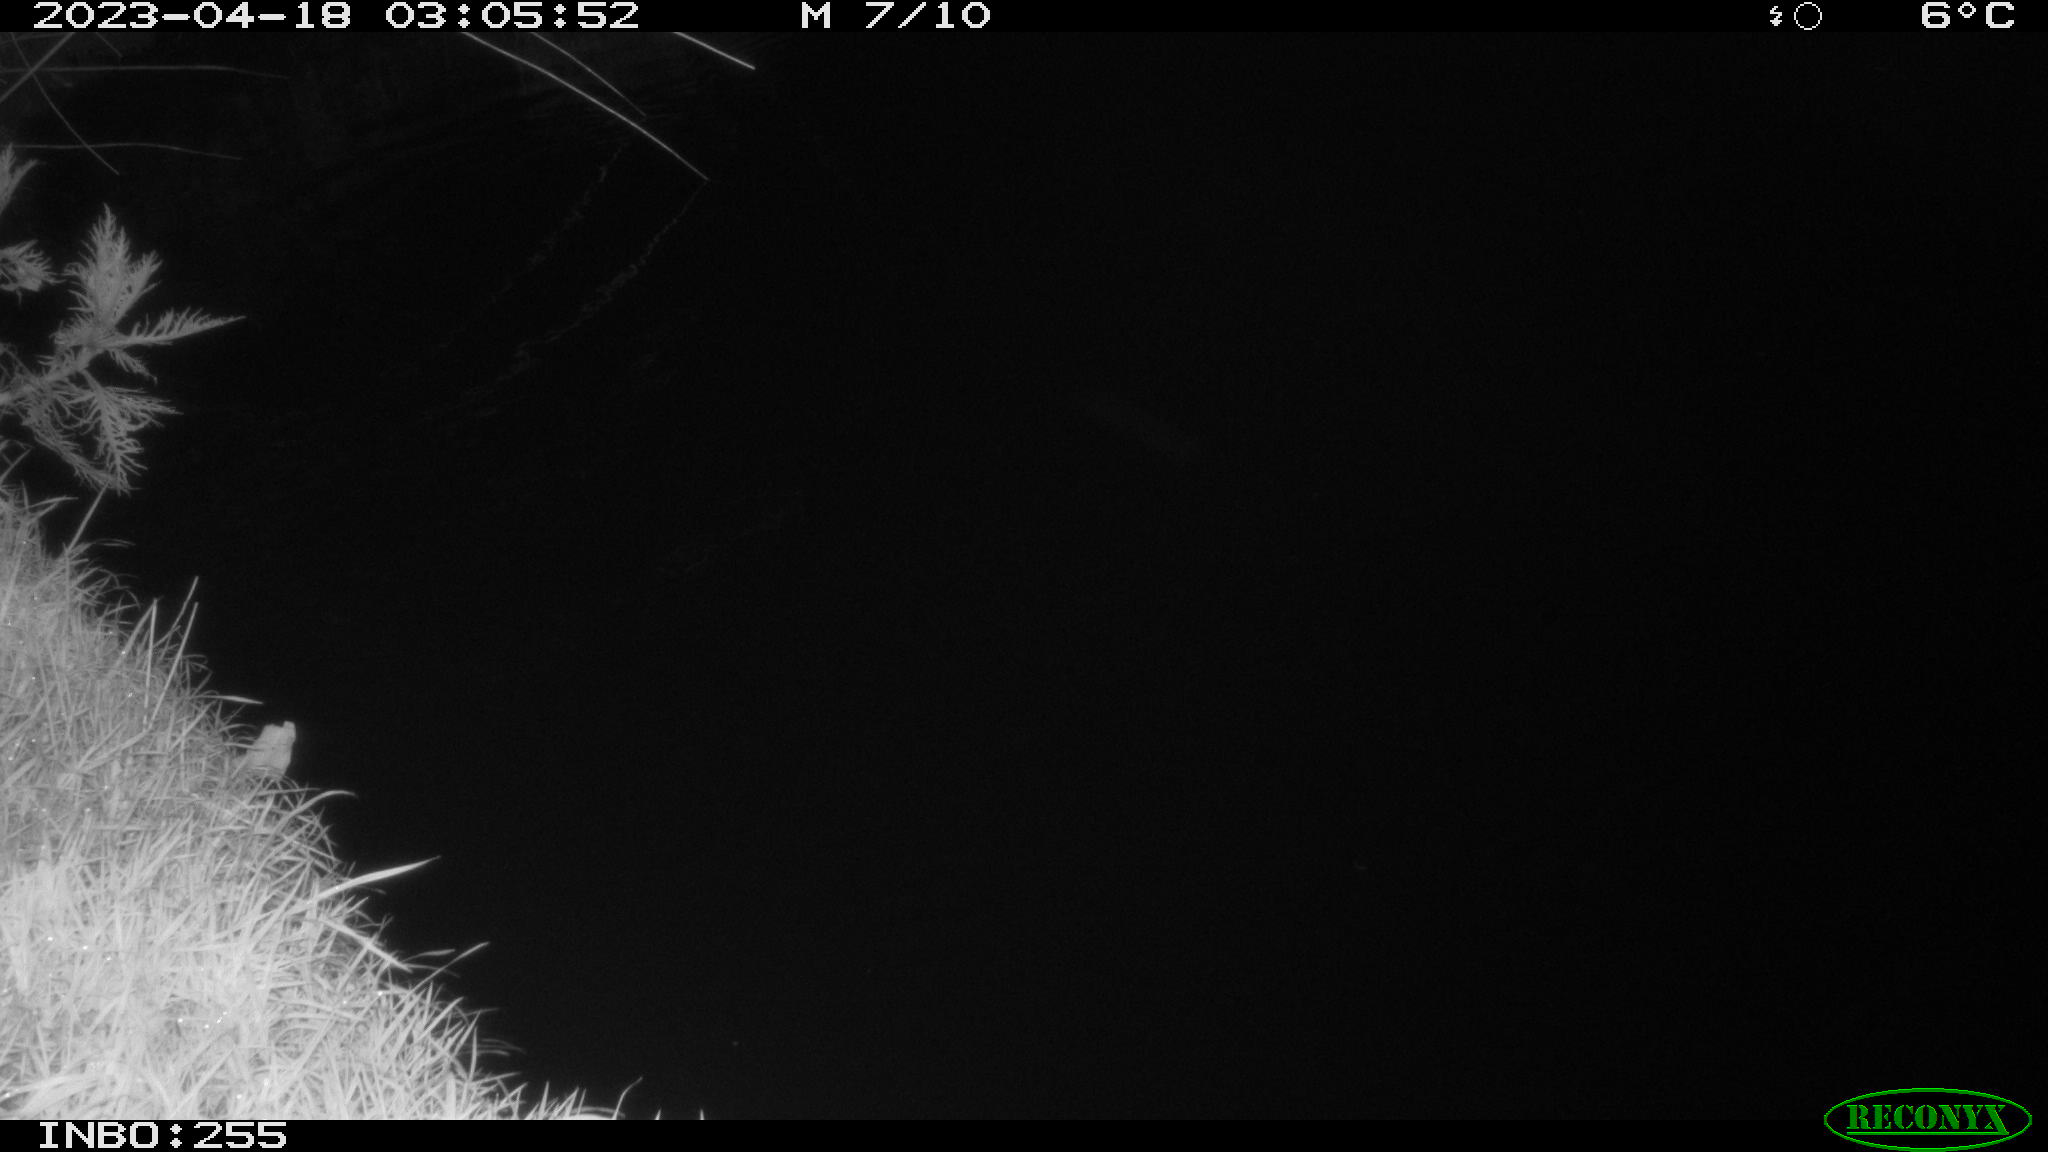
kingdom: Animalia
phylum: Chordata
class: Aves
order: Anseriformes
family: Anatidae
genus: Anas
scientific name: Anas
